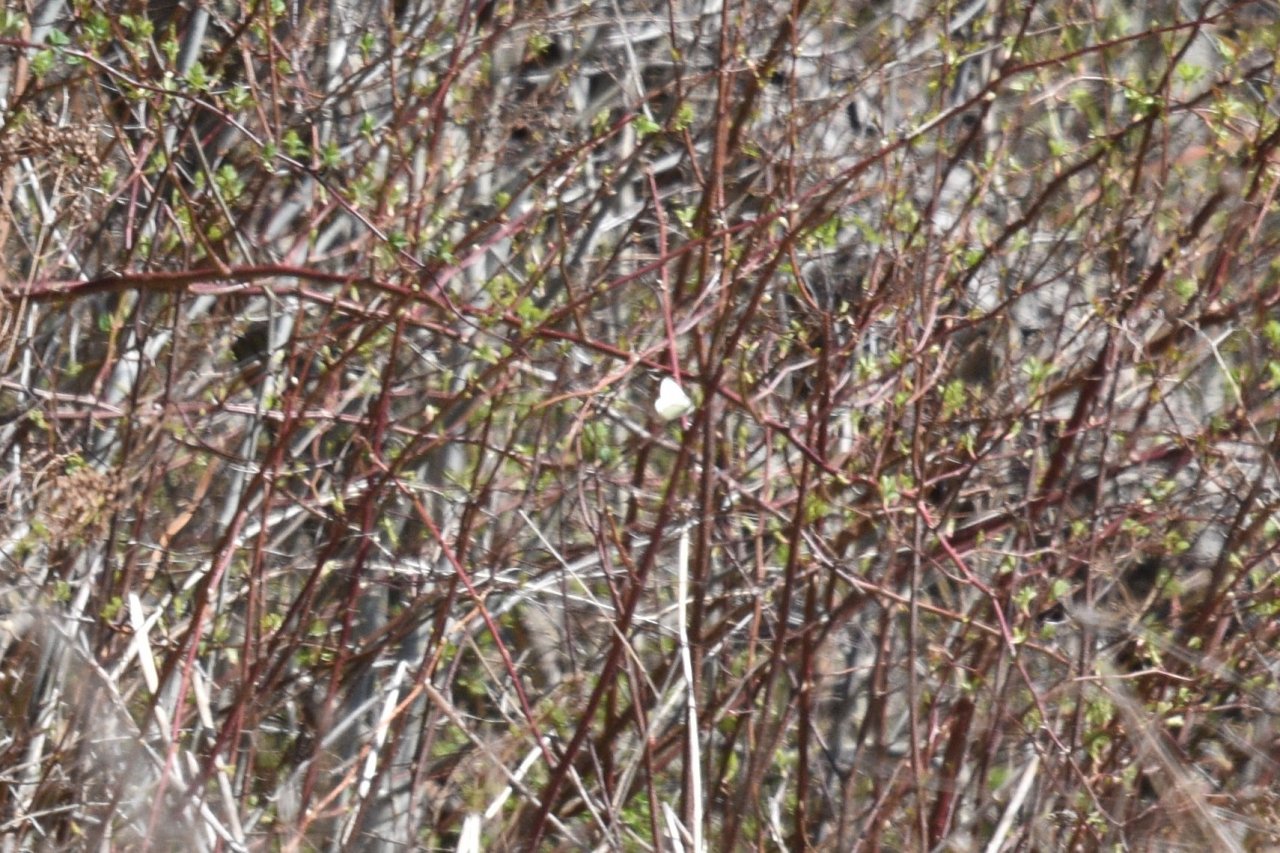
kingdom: Animalia
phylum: Arthropoda
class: Insecta
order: Lepidoptera
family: Pieridae
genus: Pieris
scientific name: Pieris rapae
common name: Cabbage White
